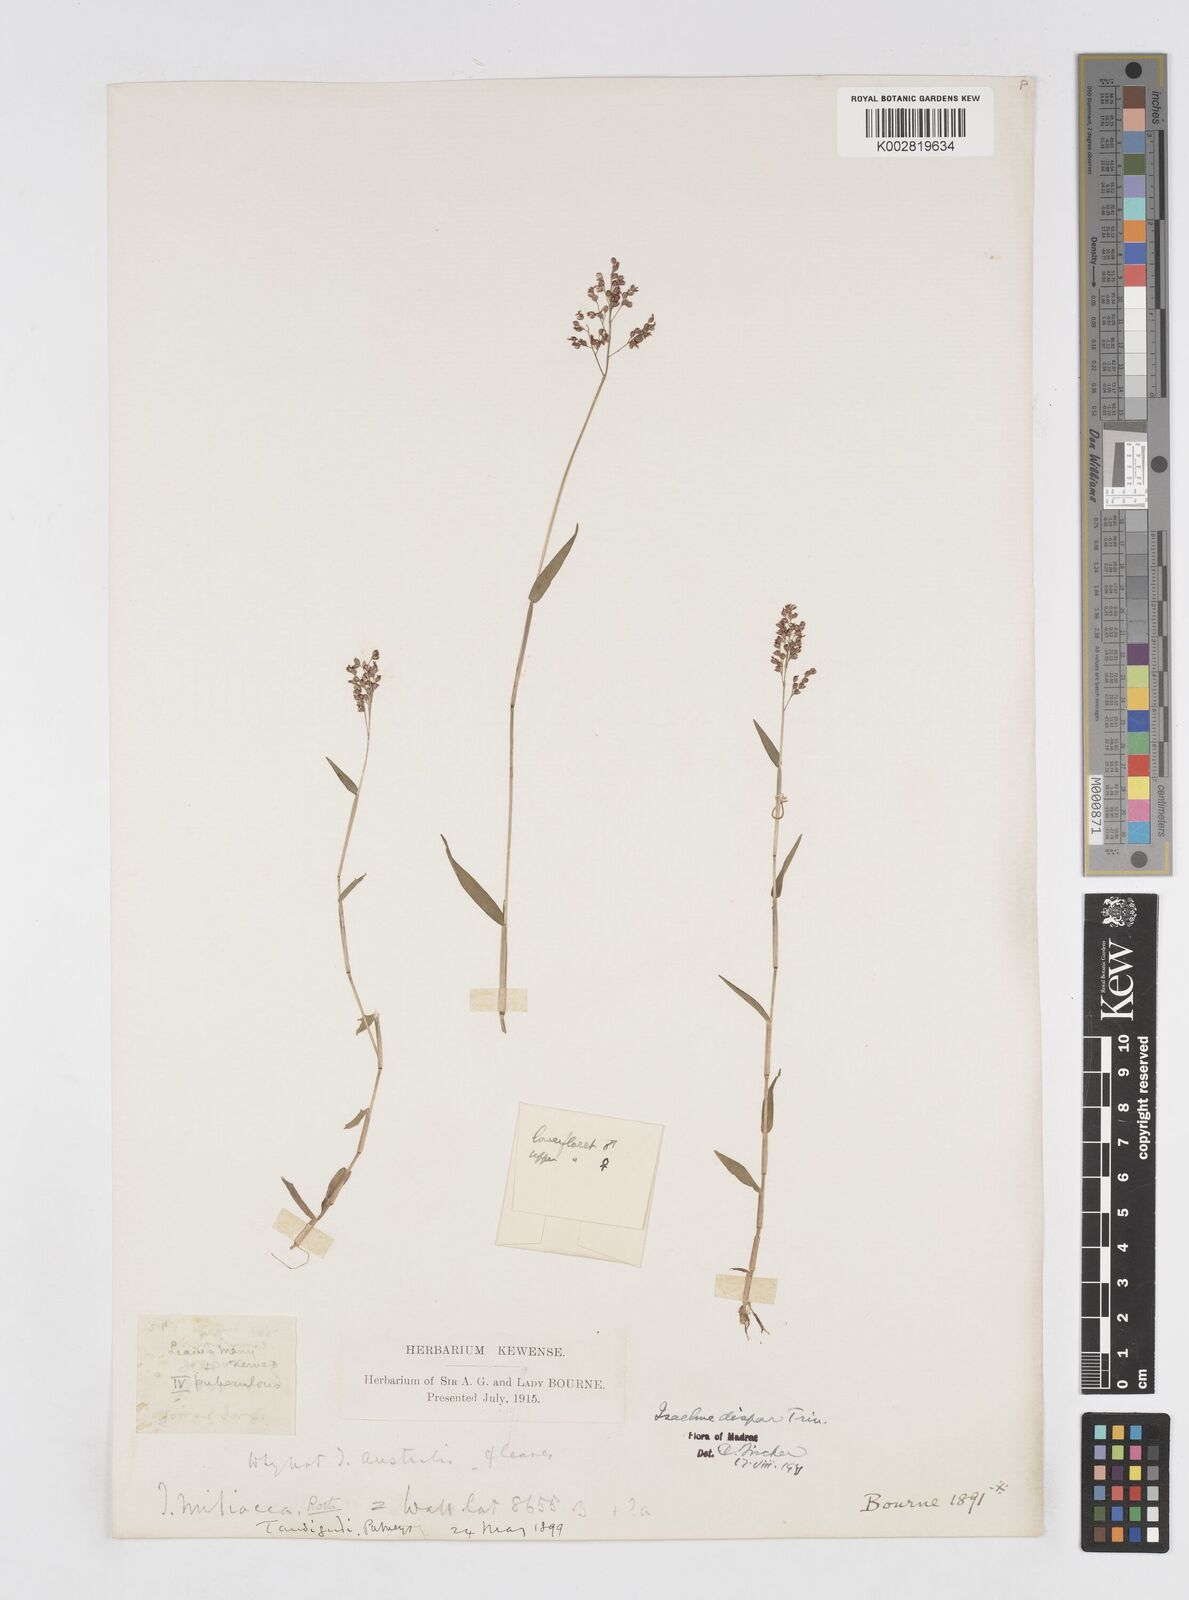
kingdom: Plantae
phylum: Tracheophyta
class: Liliopsida
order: Poales
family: Poaceae
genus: Isachne
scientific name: Isachne globosa
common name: Swamp millet
